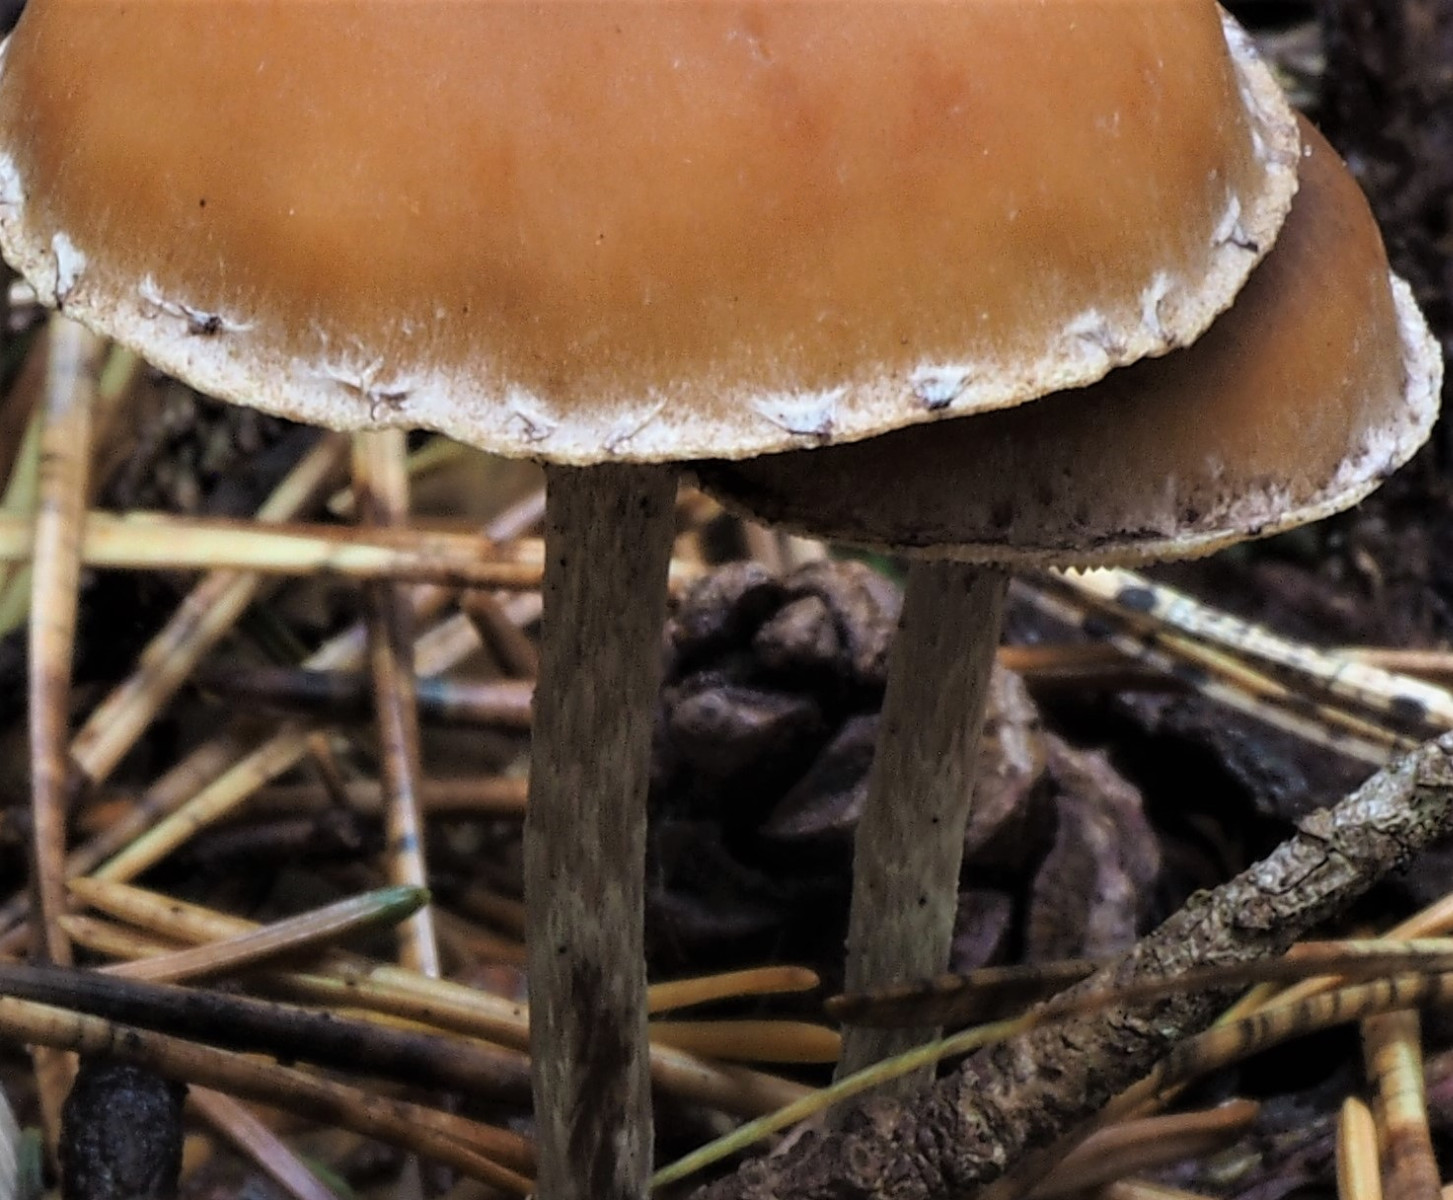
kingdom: Fungi
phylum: Basidiomycota
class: Agaricomycetes
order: Agaricales
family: Strophariaceae
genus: Hypholoma
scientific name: Hypholoma marginatum
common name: enlig svovlhat
